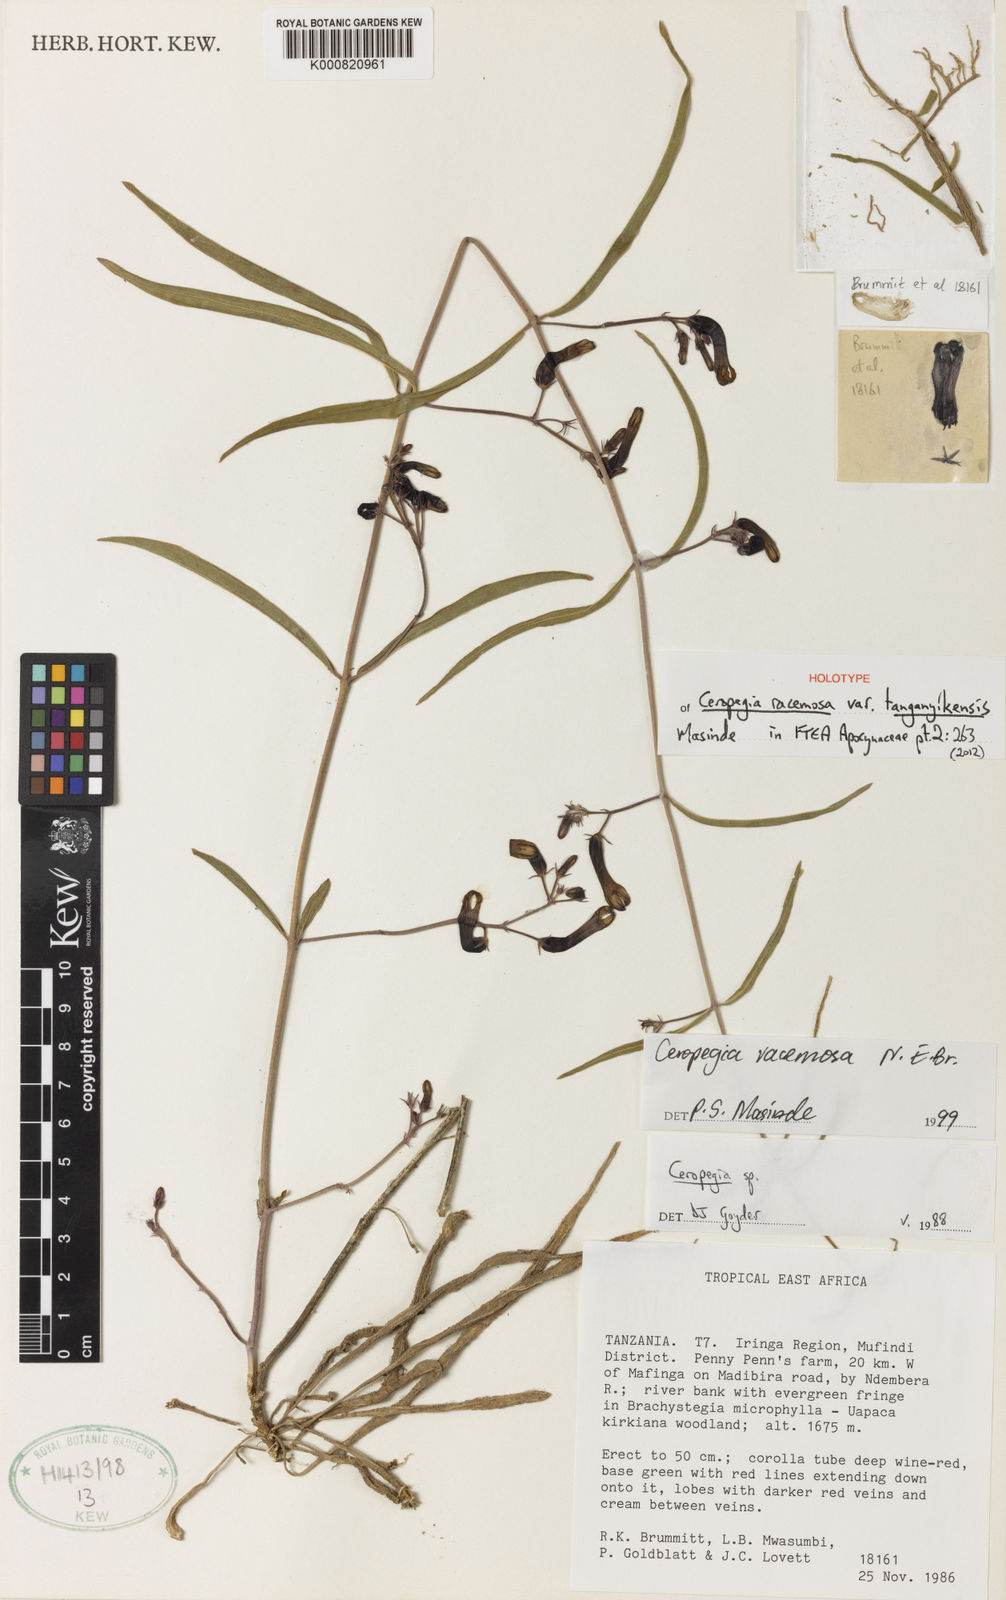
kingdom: Plantae
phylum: Tracheophyta
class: Magnoliopsida
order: Gentianales
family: Apocynaceae
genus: Ceropegia
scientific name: Ceropegia racemosa
